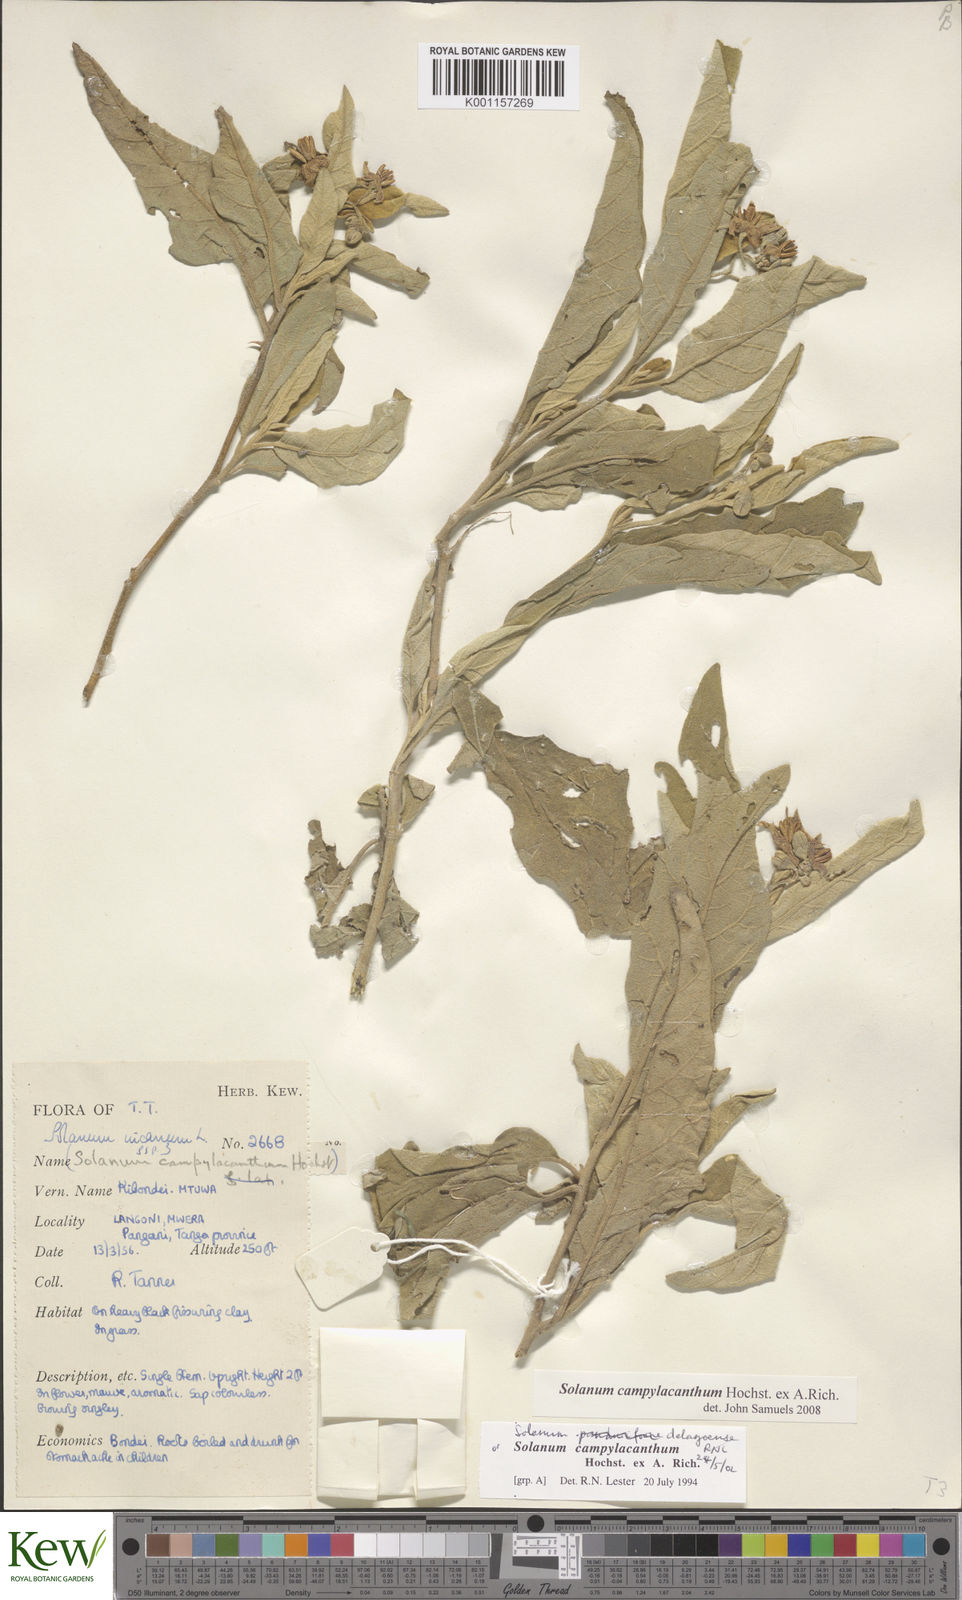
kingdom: Plantae
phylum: Tracheophyta
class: Magnoliopsida
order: Solanales
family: Solanaceae
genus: Solanum
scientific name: Solanum campylacanthum
